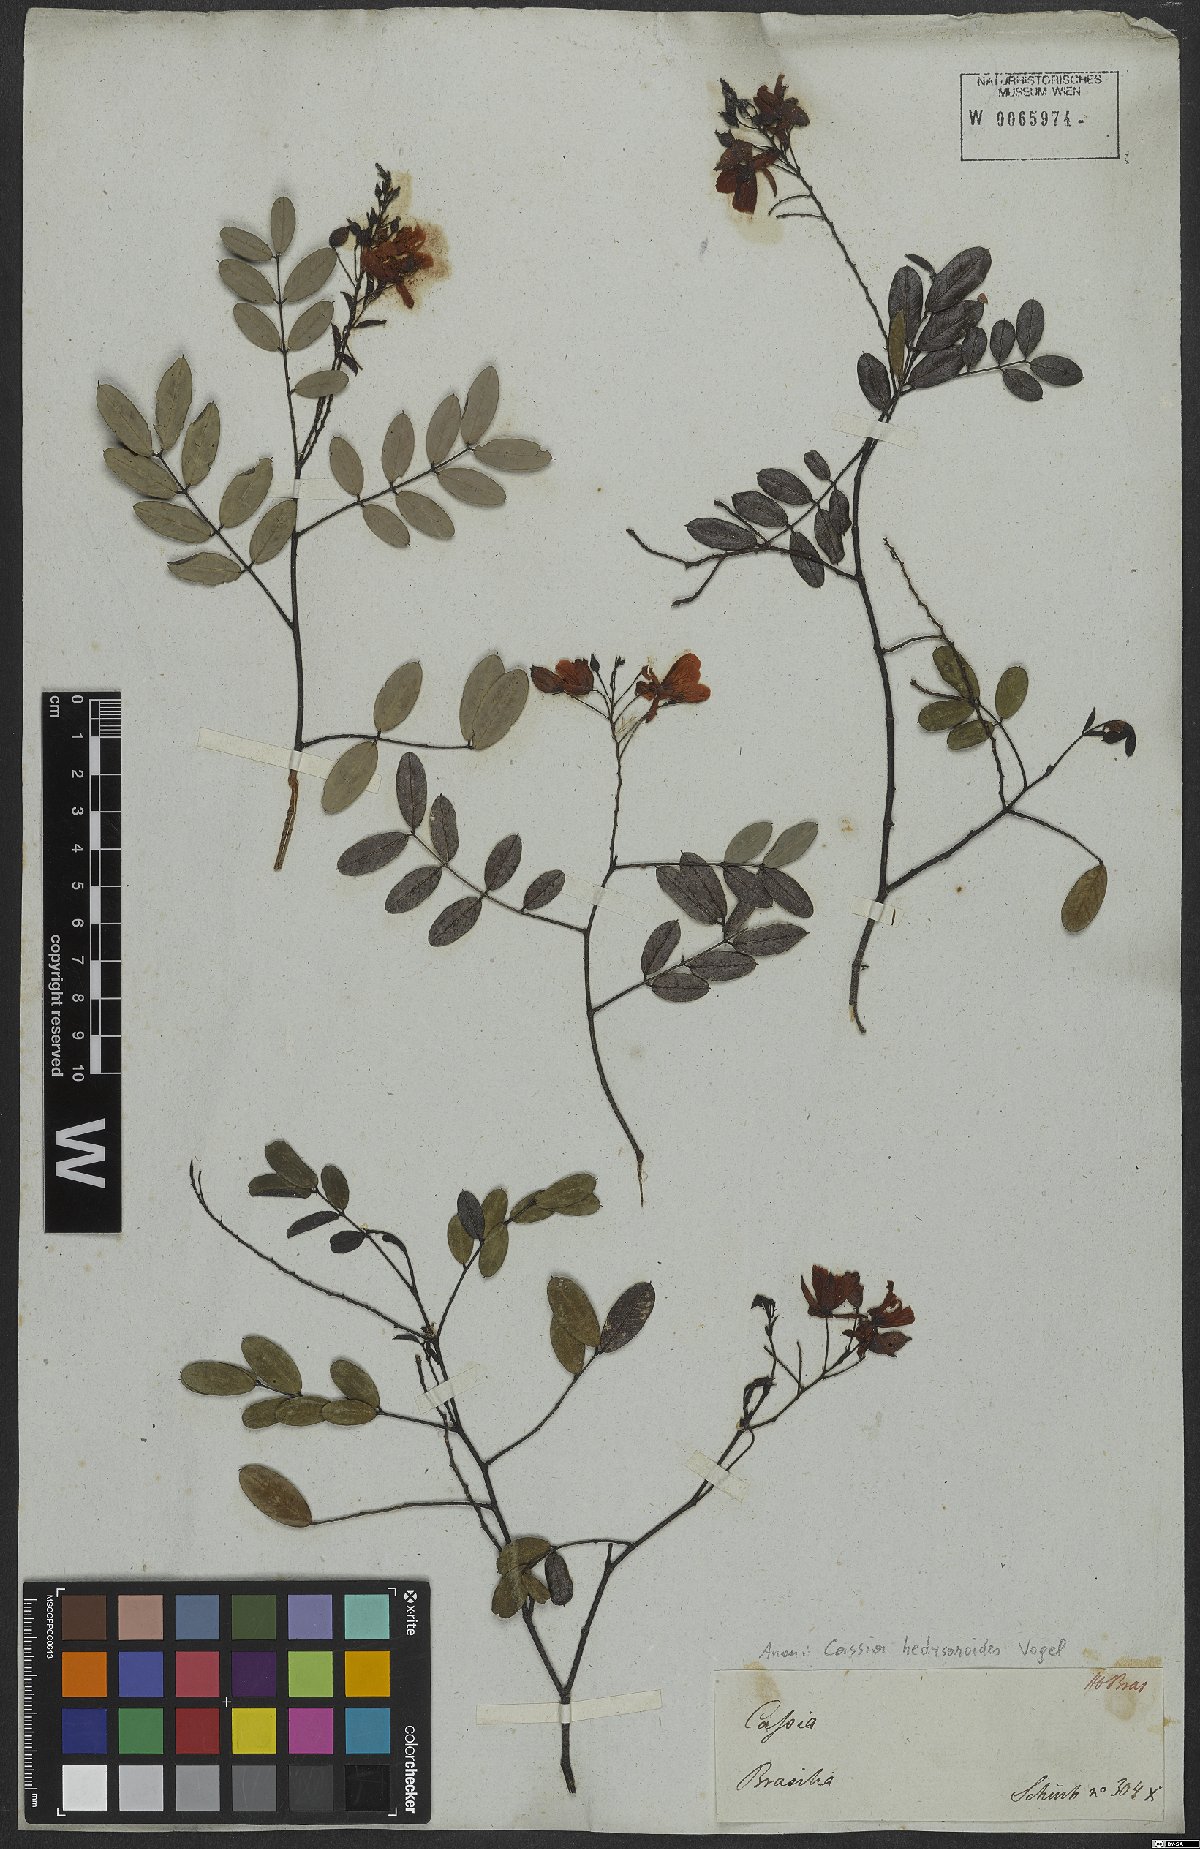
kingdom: Plantae
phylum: Tracheophyta
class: Magnoliopsida
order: Fabales
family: Fabaceae
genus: Chamaecrista
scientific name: Chamaecrista hedysaroides
